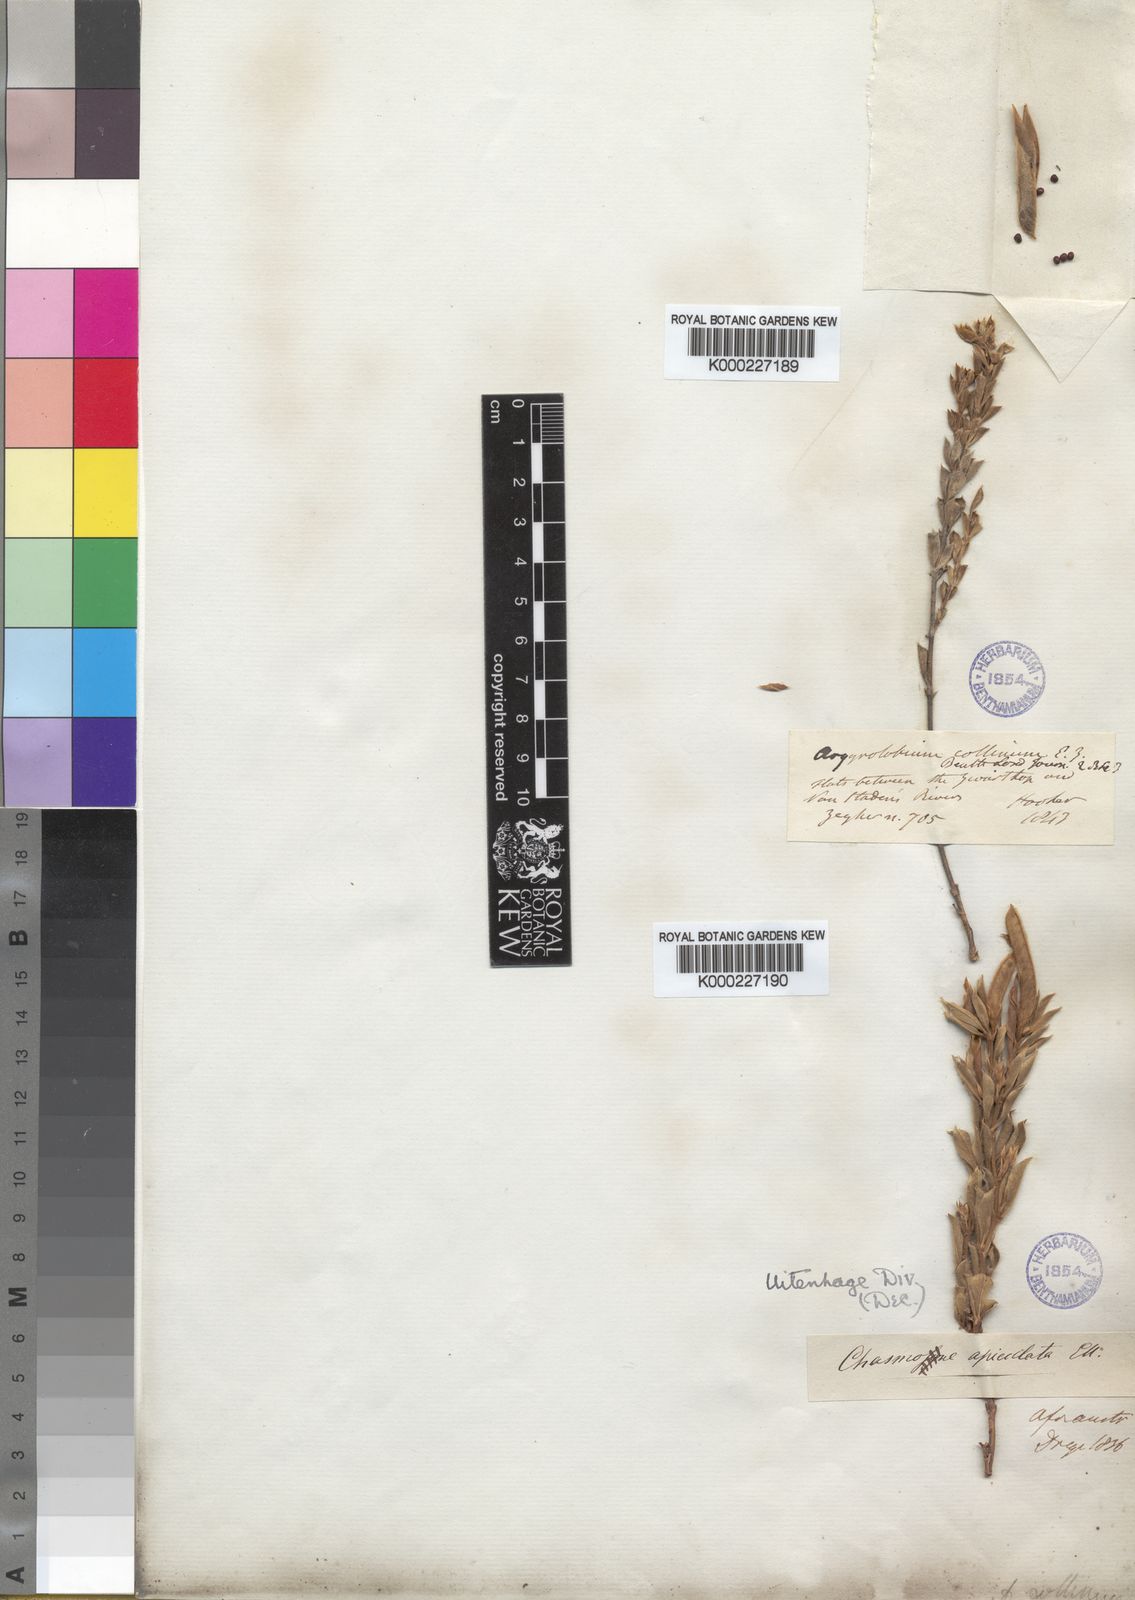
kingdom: Plantae
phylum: Tracheophyta
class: Magnoliopsida
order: Fabales
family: Fabaceae
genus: Argyrolobium
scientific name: Argyrolobium collinum
